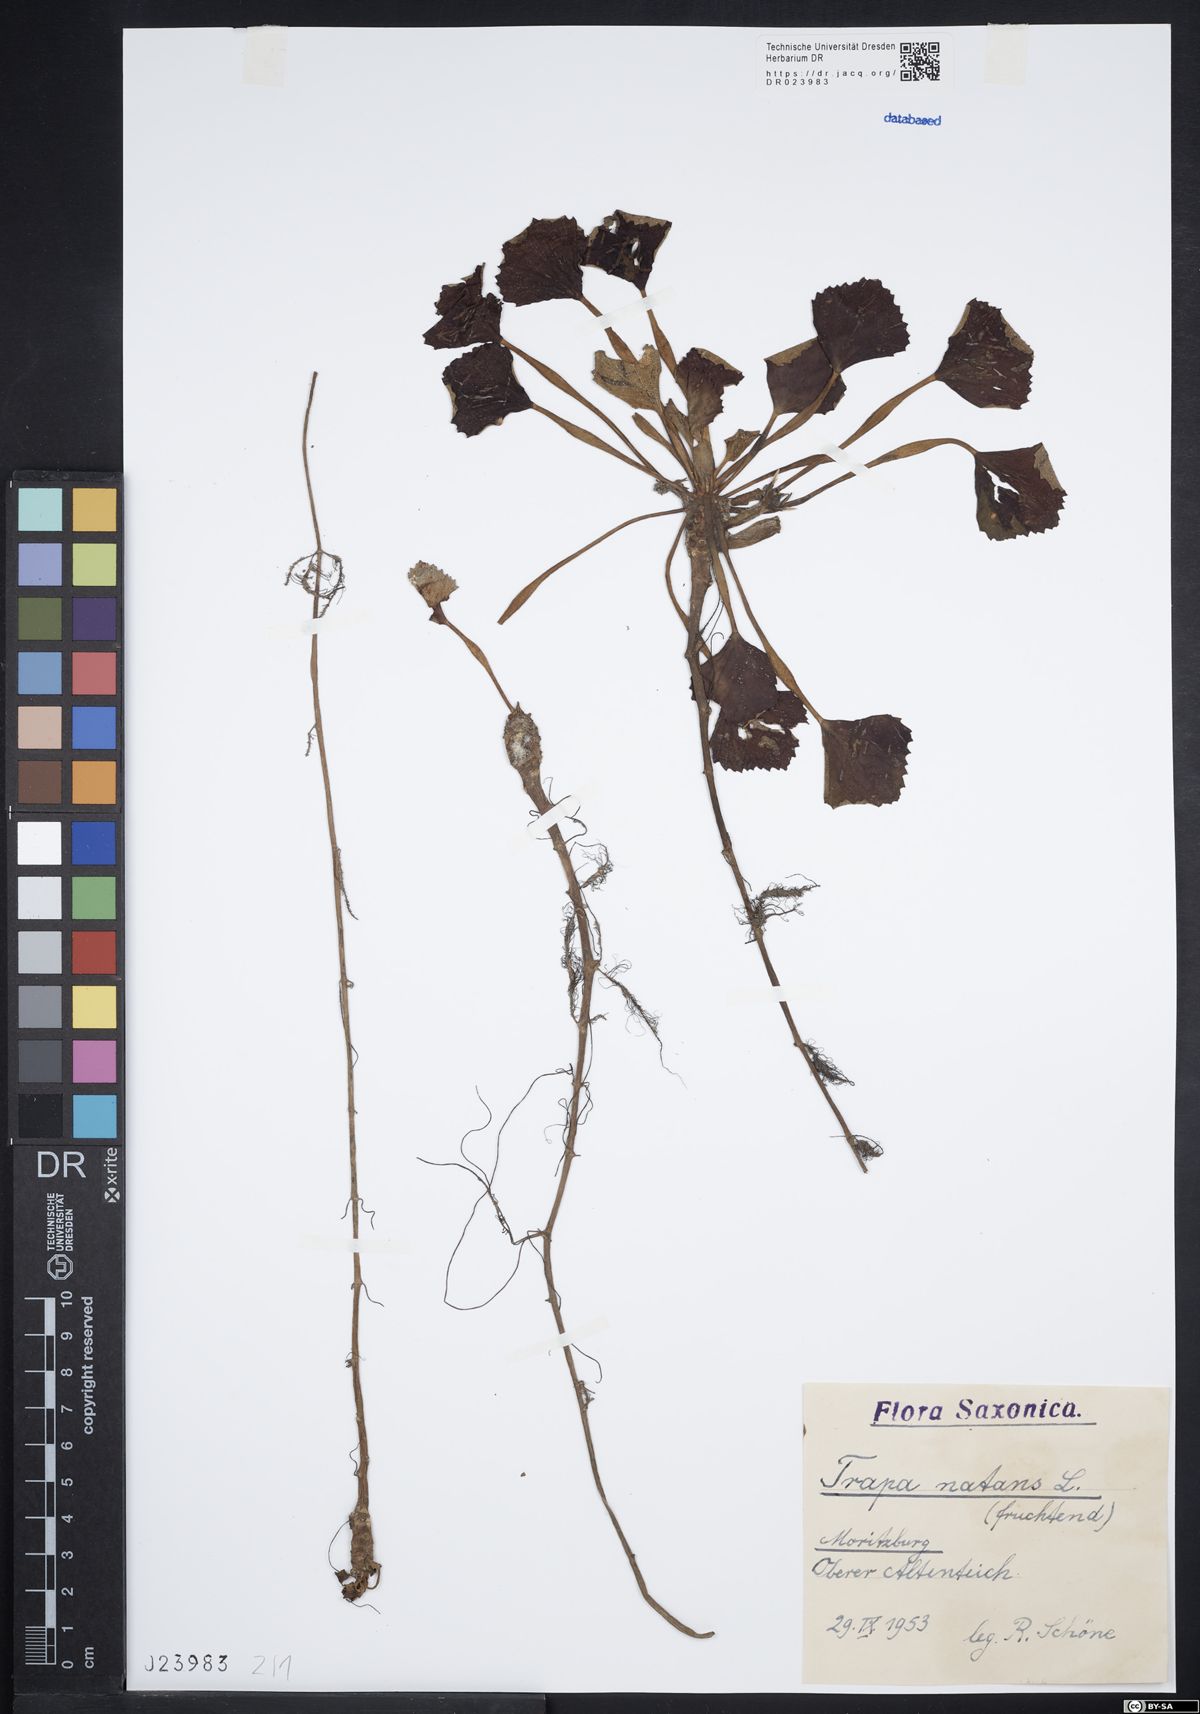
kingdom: Plantae
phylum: Tracheophyta
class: Magnoliopsida
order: Myrtales
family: Lythraceae
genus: Trapa
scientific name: Trapa natans
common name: Water chestnut
